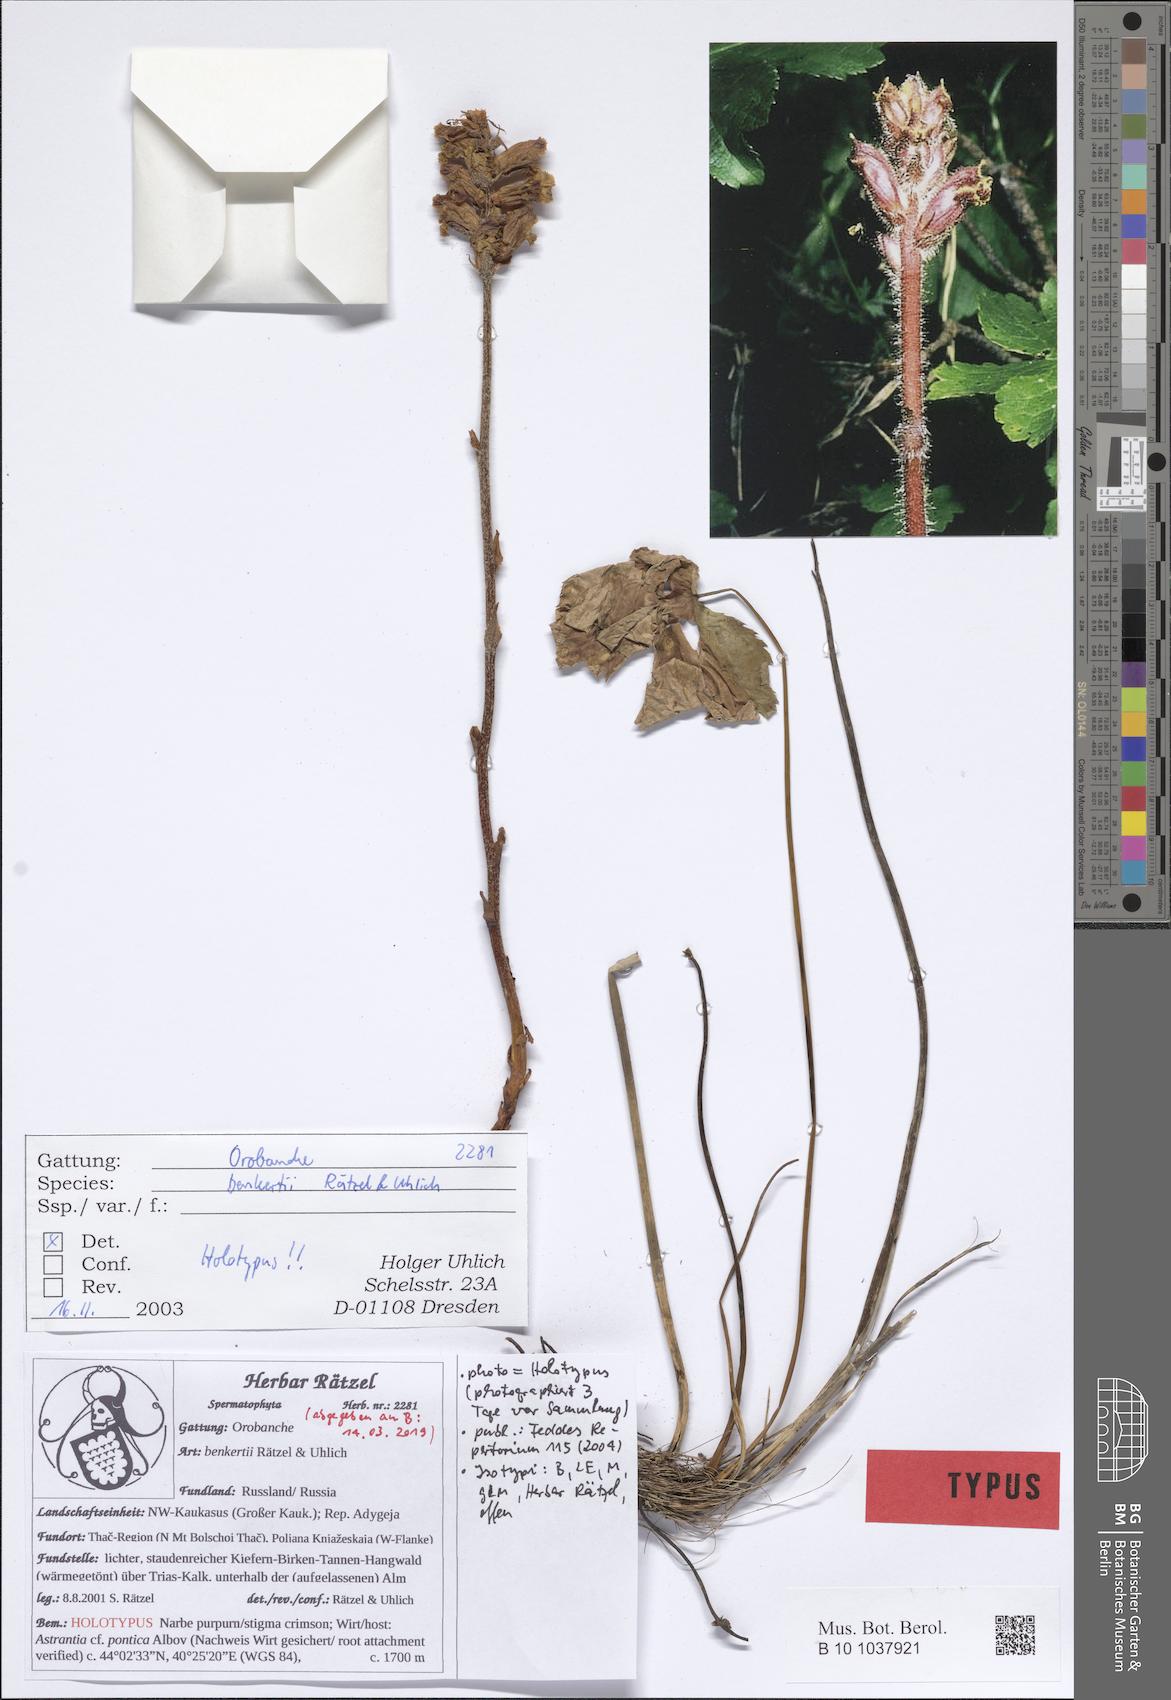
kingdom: Plantae
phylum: Tracheophyta
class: Magnoliopsida
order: Lamiales
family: Orobanchaceae
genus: Orobanche
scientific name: Orobanche benkertii
